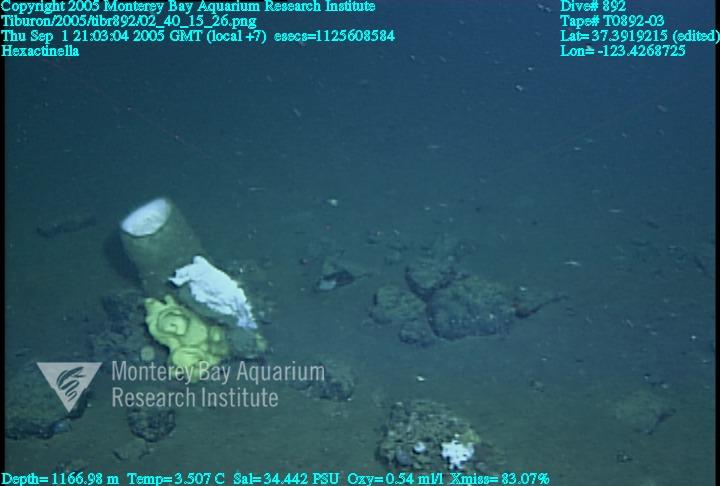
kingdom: Animalia
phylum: Porifera
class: Hexactinellida
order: Sceptrulophora
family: Tretodictyidae
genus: Hexactinella
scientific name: Hexactinella
